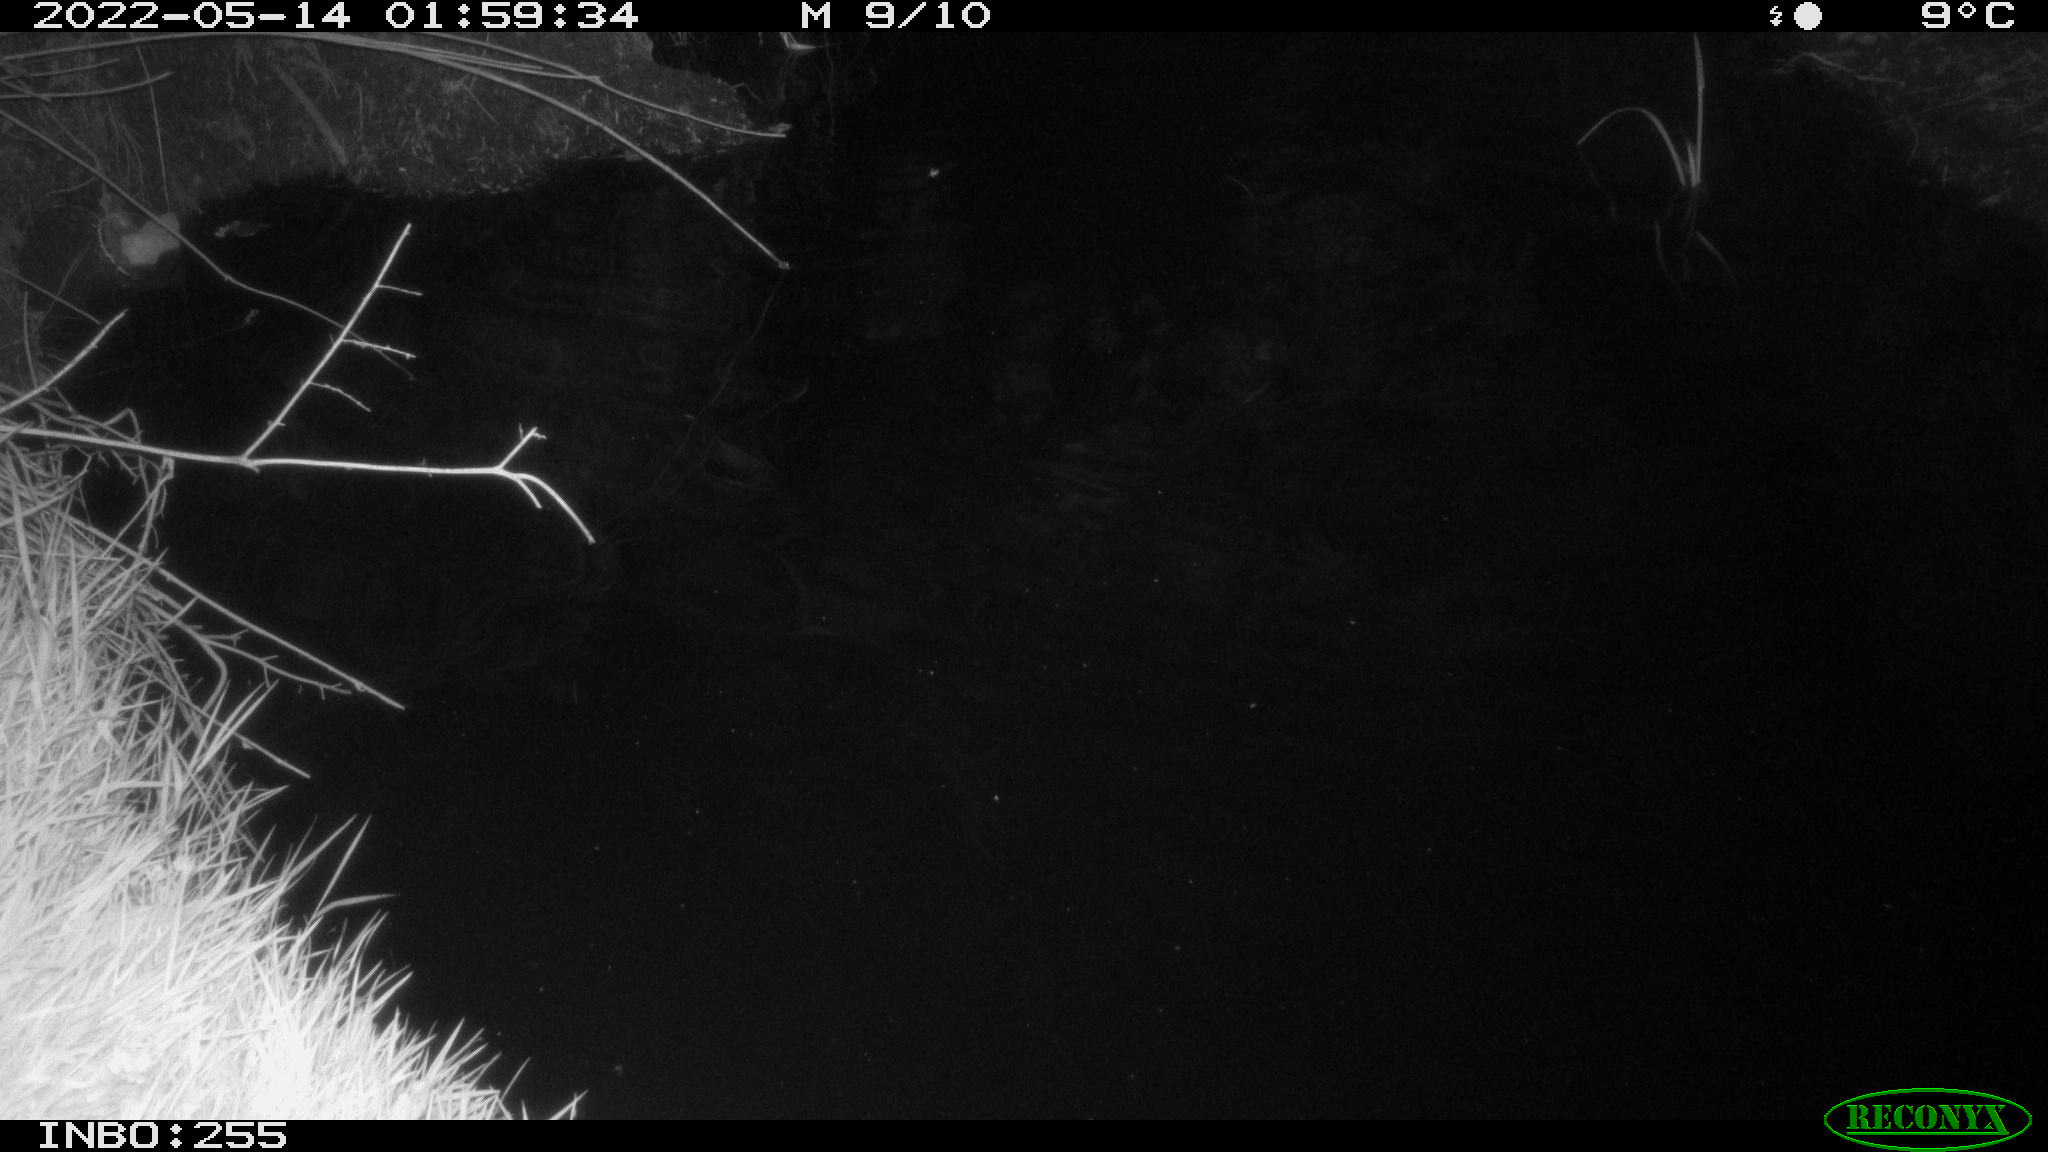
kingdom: Animalia
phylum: Chordata
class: Aves
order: Anseriformes
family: Anatidae
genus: Anas
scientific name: Anas platyrhynchos
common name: Mallard
